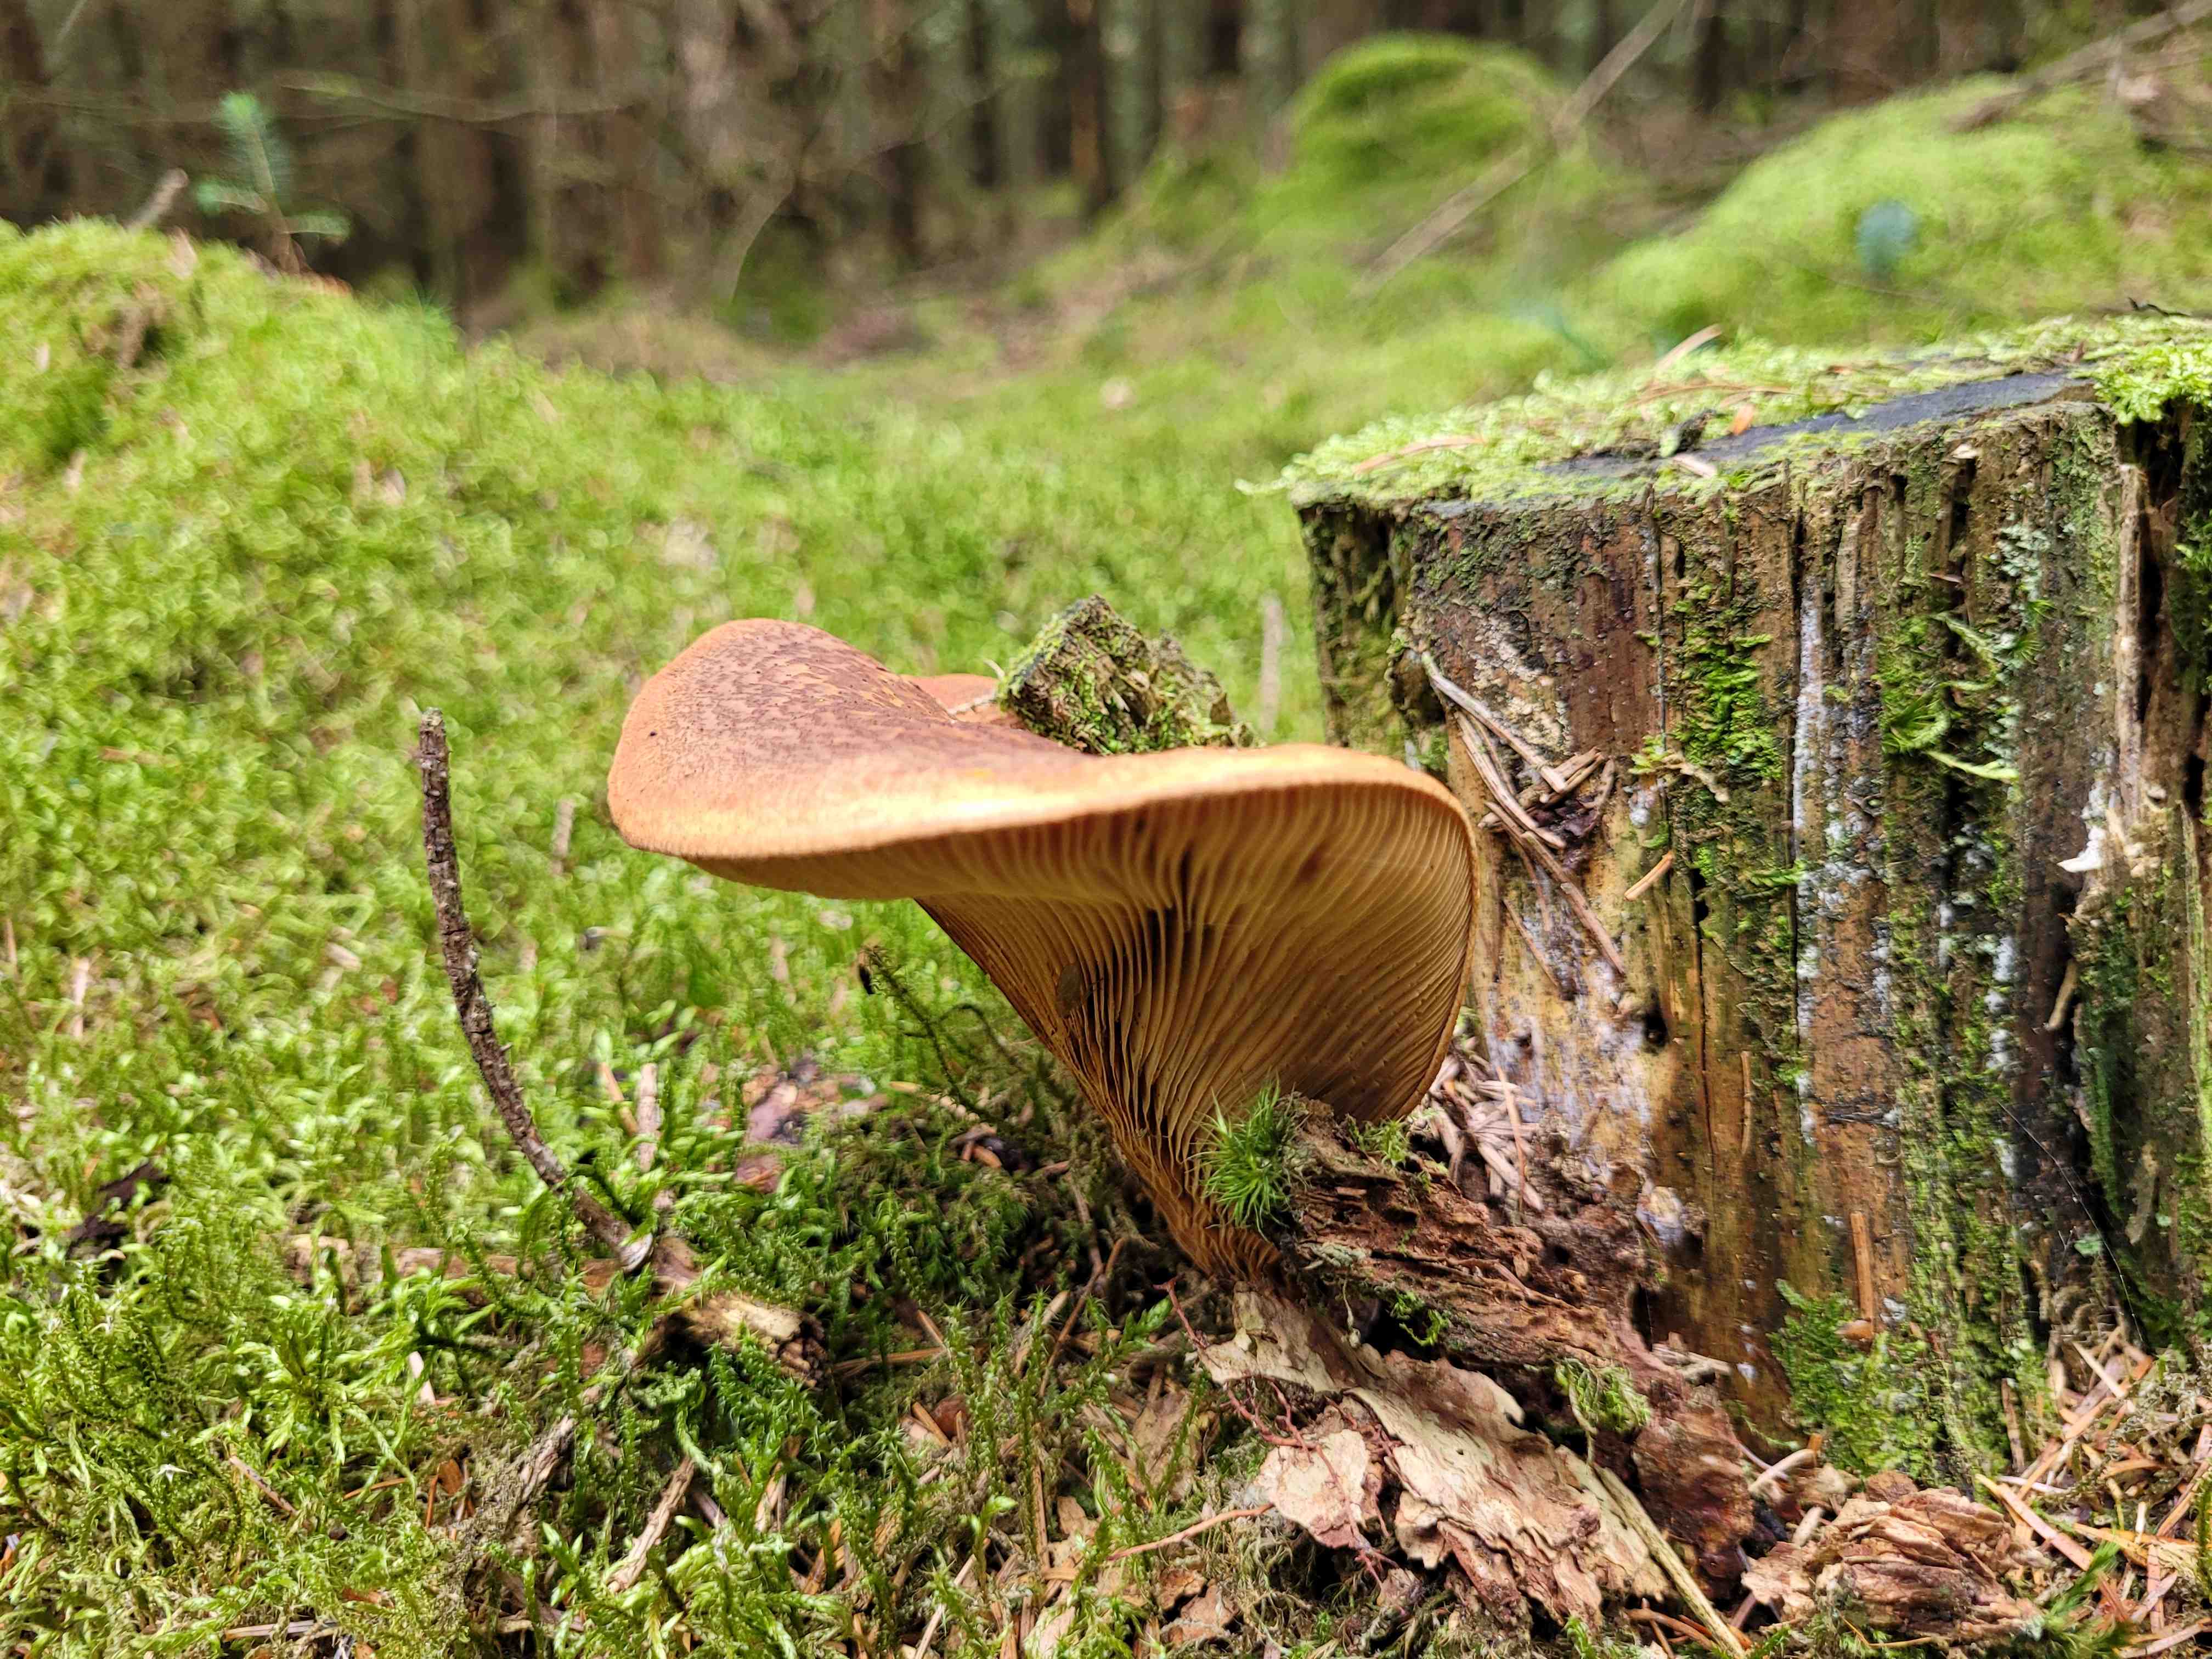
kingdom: Fungi
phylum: Basidiomycota
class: Agaricomycetes
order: Boletales
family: Tapinellaceae
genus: Tapinella
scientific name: Tapinella atrotomentosa
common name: sortfiltet viftesvamp
